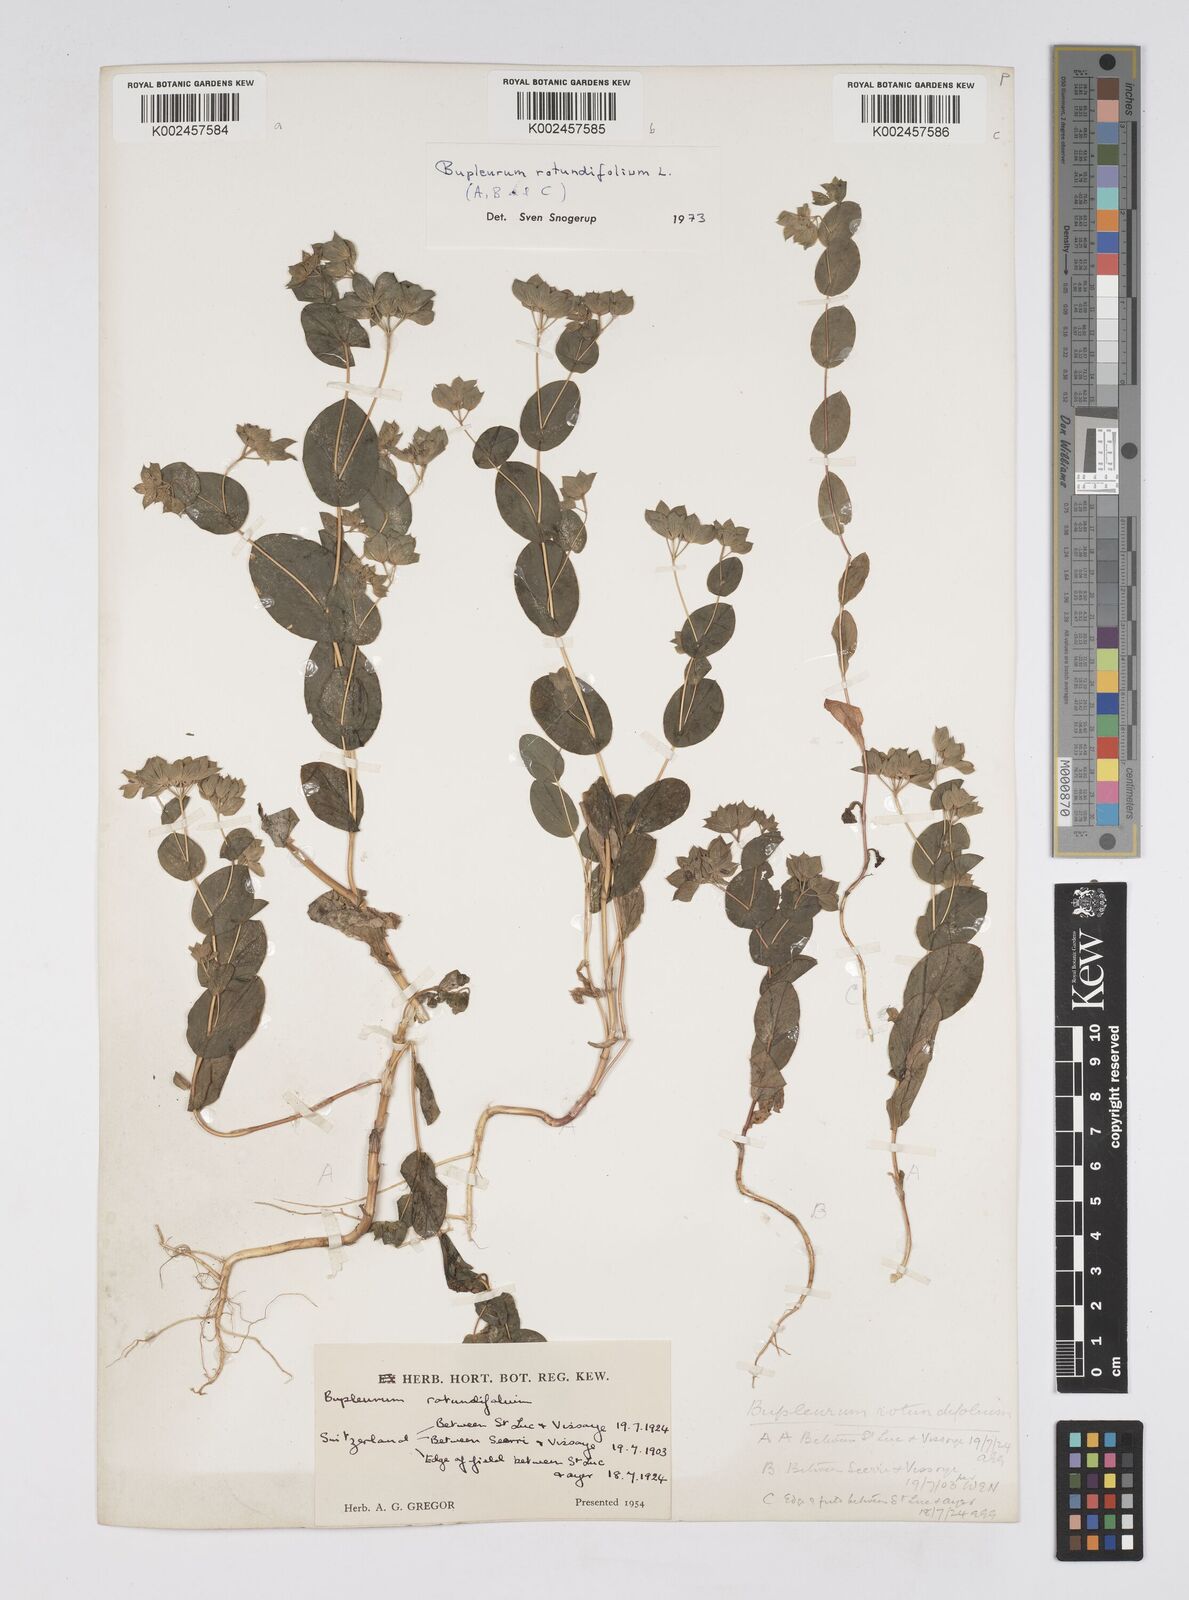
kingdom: Plantae
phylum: Tracheophyta
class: Magnoliopsida
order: Apiales
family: Apiaceae
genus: Bupleurum
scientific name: Bupleurum rotundifolium
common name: Thorow-wax
